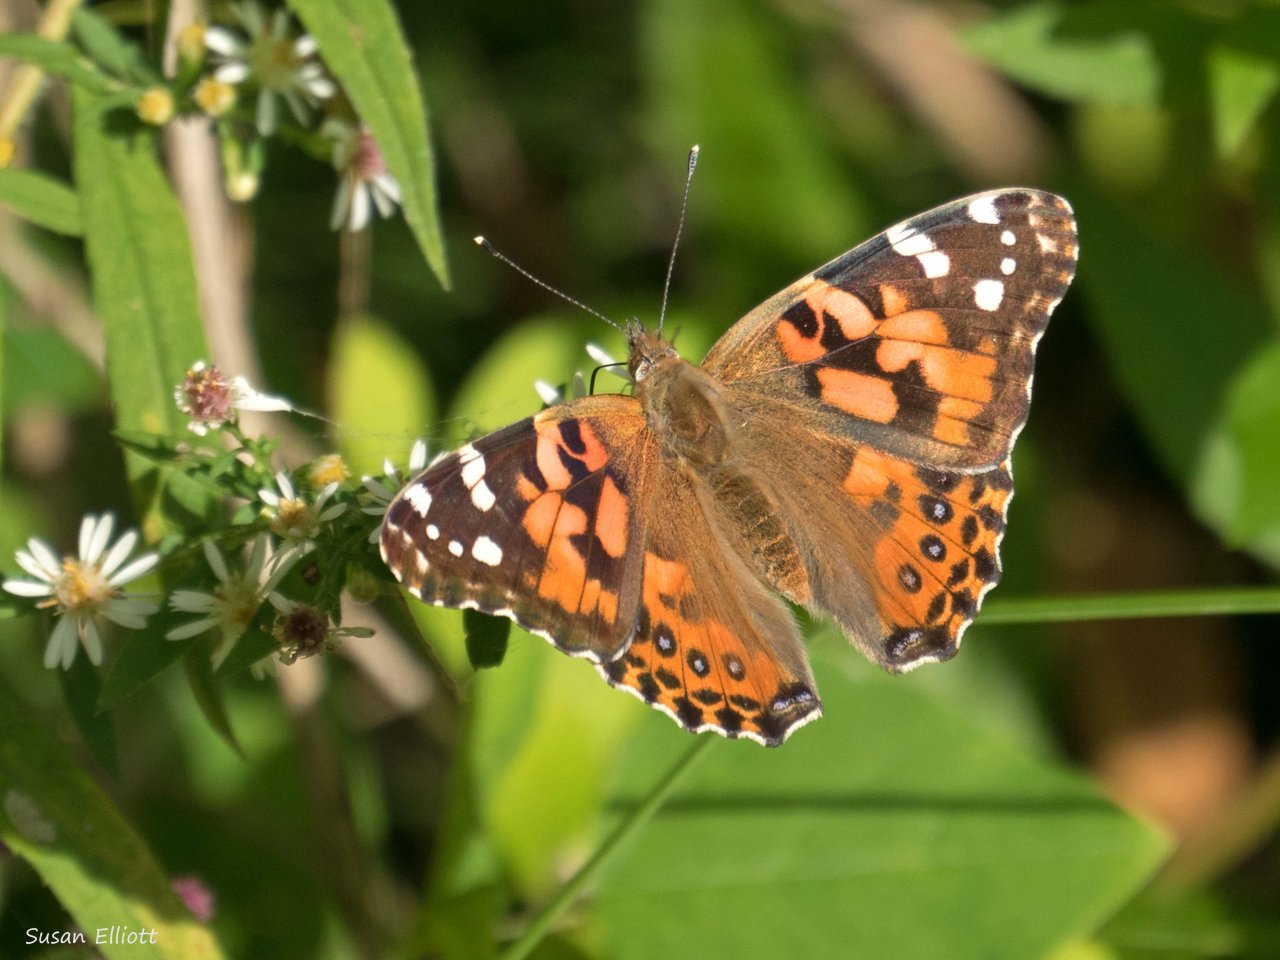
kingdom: Animalia
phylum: Arthropoda
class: Insecta
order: Lepidoptera
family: Nymphalidae
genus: Vanessa
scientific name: Vanessa cardui
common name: Painted Lady
